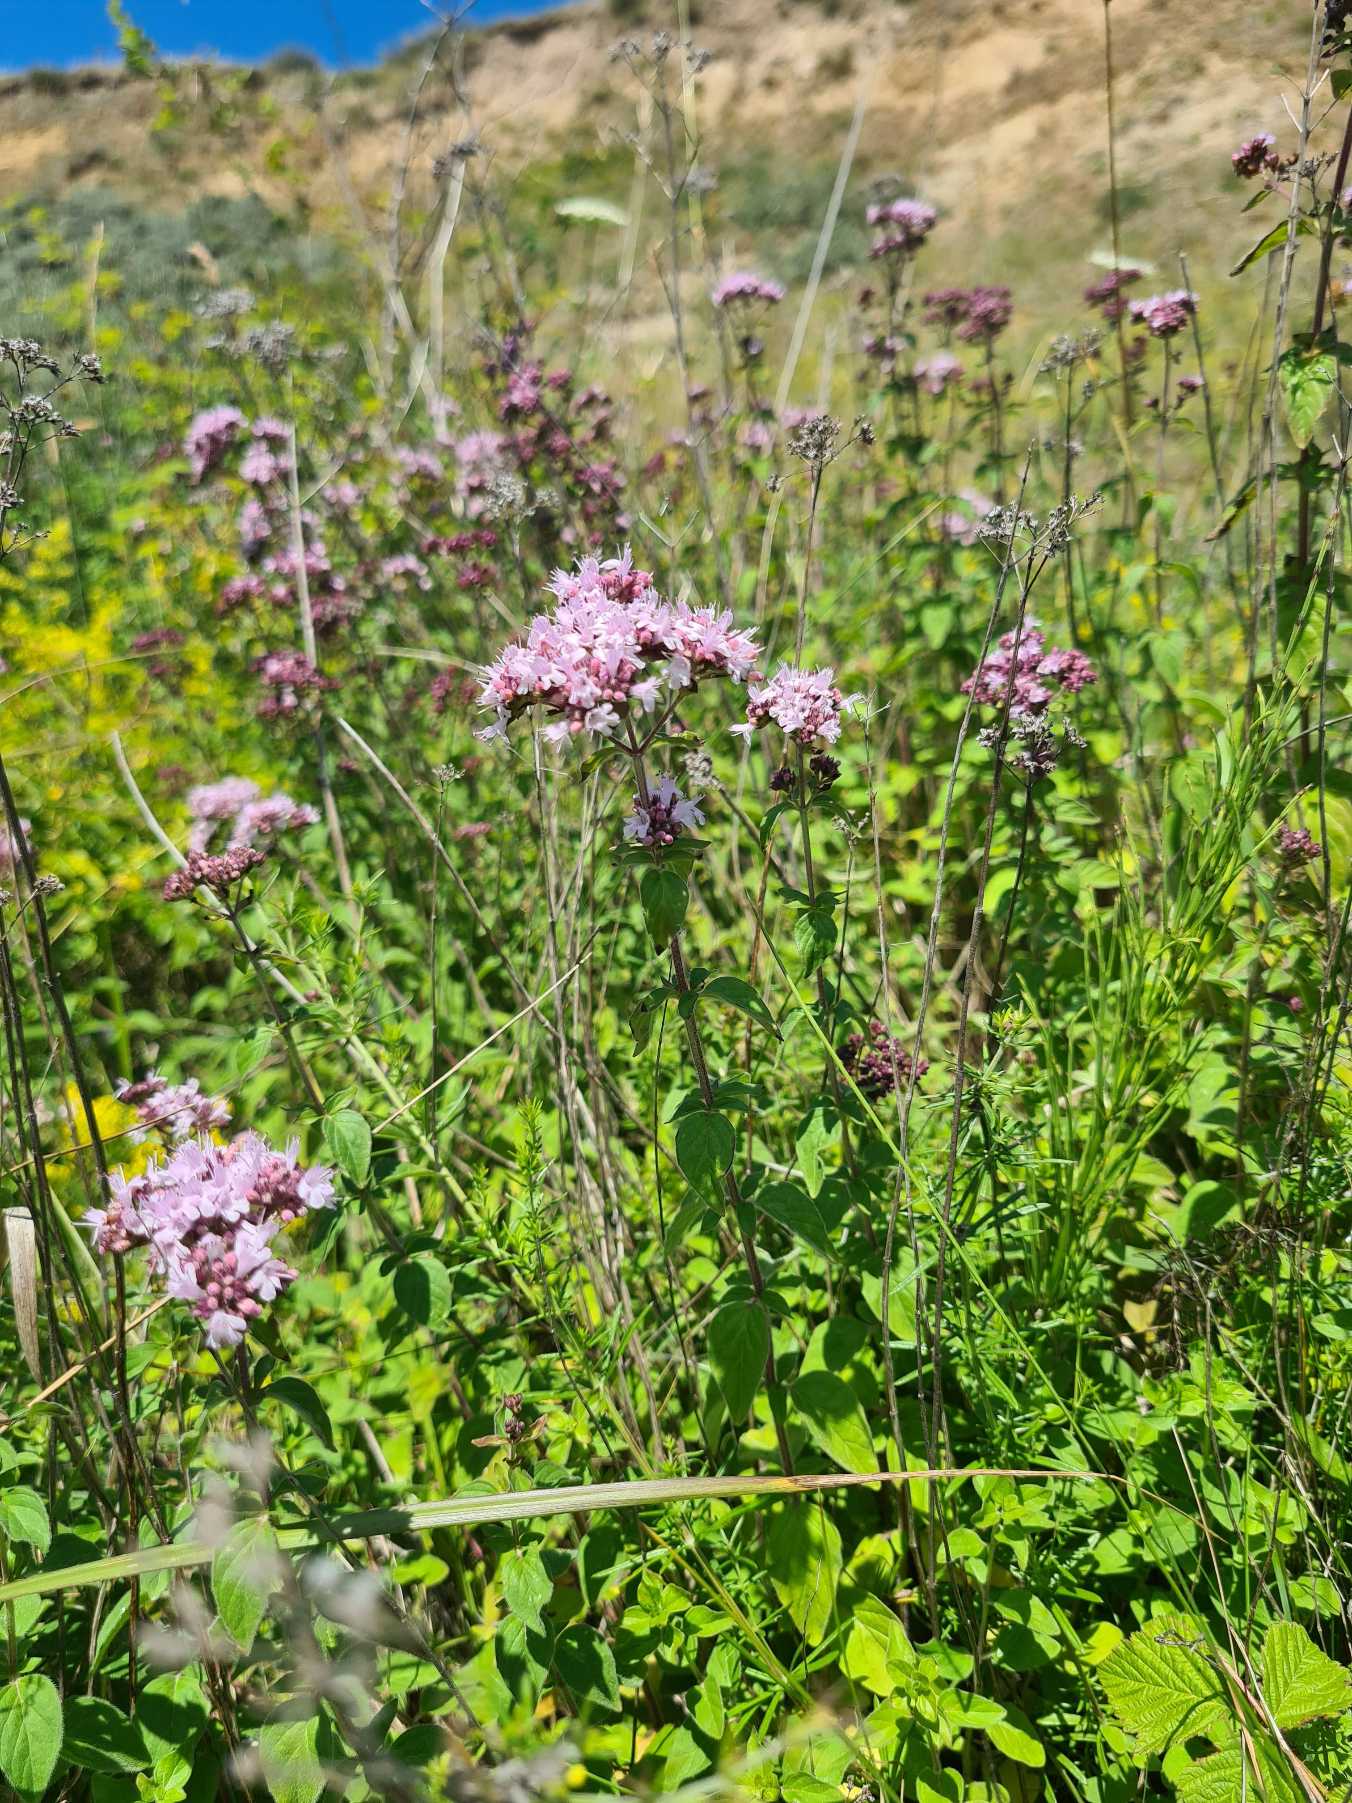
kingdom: Plantae
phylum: Tracheophyta
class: Magnoliopsida
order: Lamiales
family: Lamiaceae
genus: Origanum
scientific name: Origanum vulgare
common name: Merian
